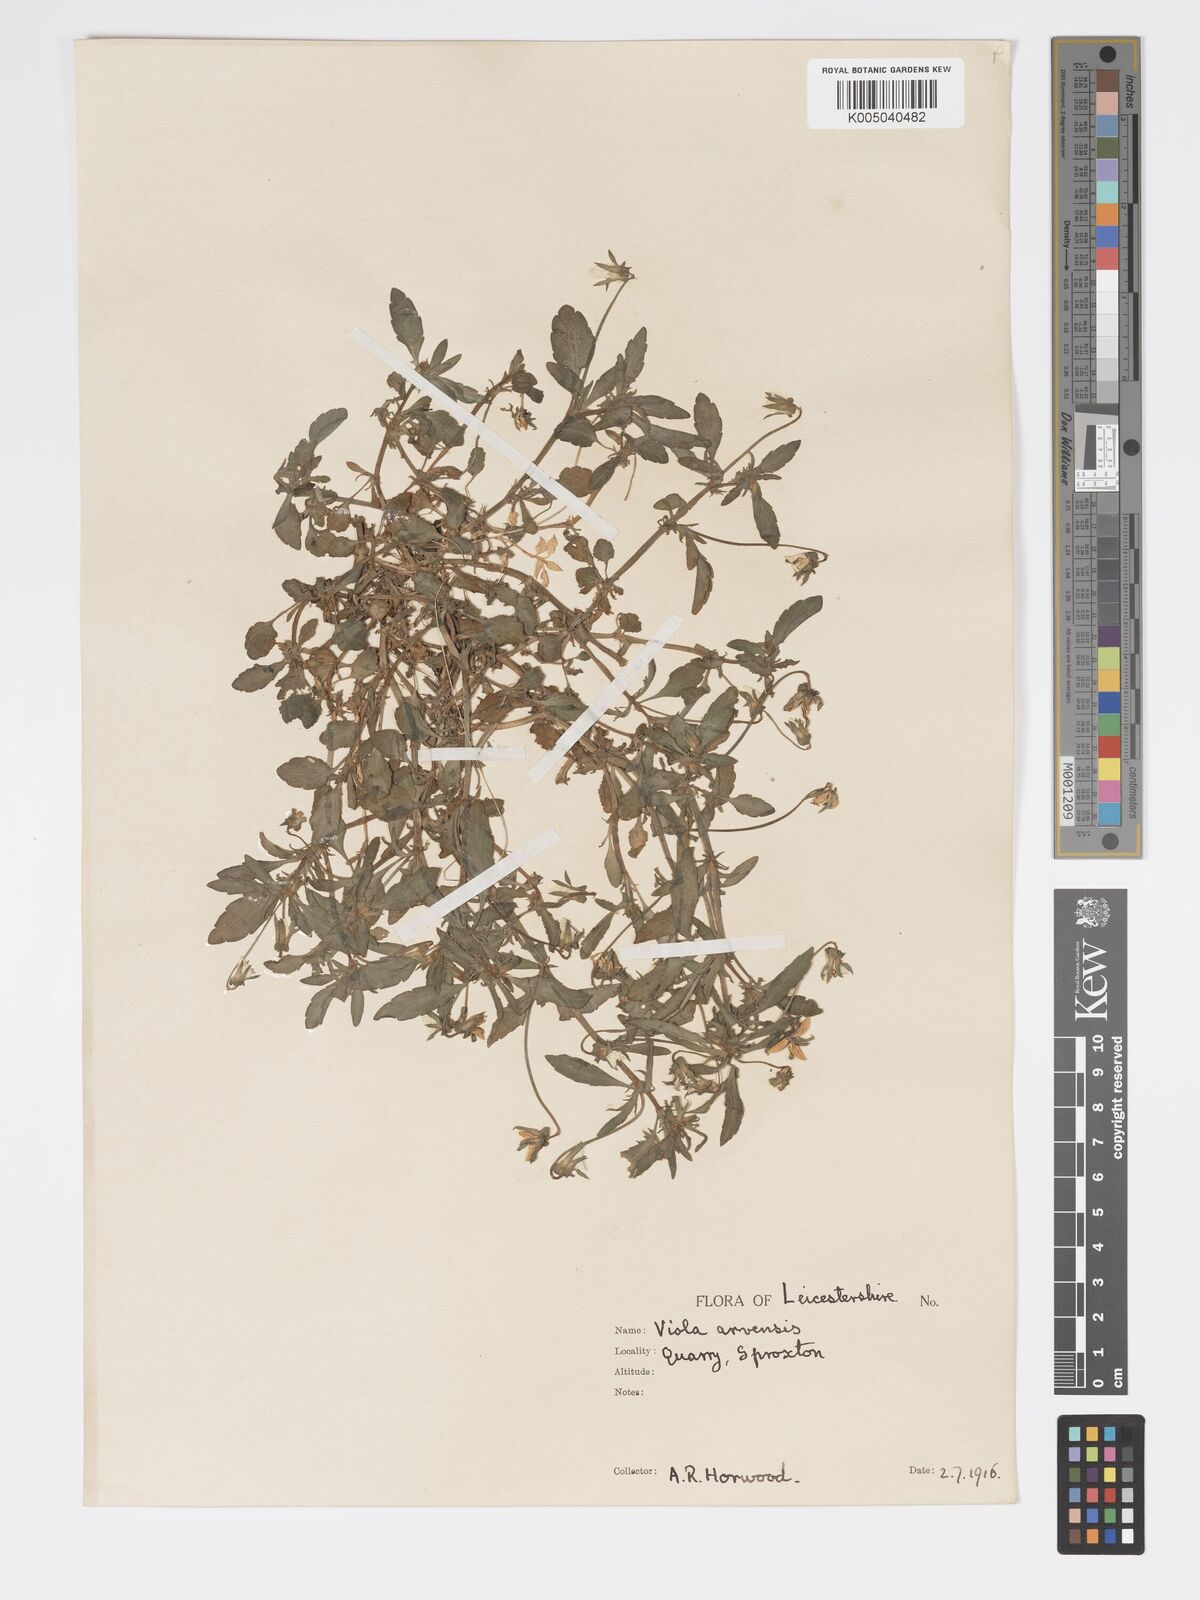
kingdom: Plantae
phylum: Tracheophyta
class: Magnoliopsida
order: Malpighiales
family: Violaceae
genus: Viola
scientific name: Viola arvensis
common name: Field pansy
